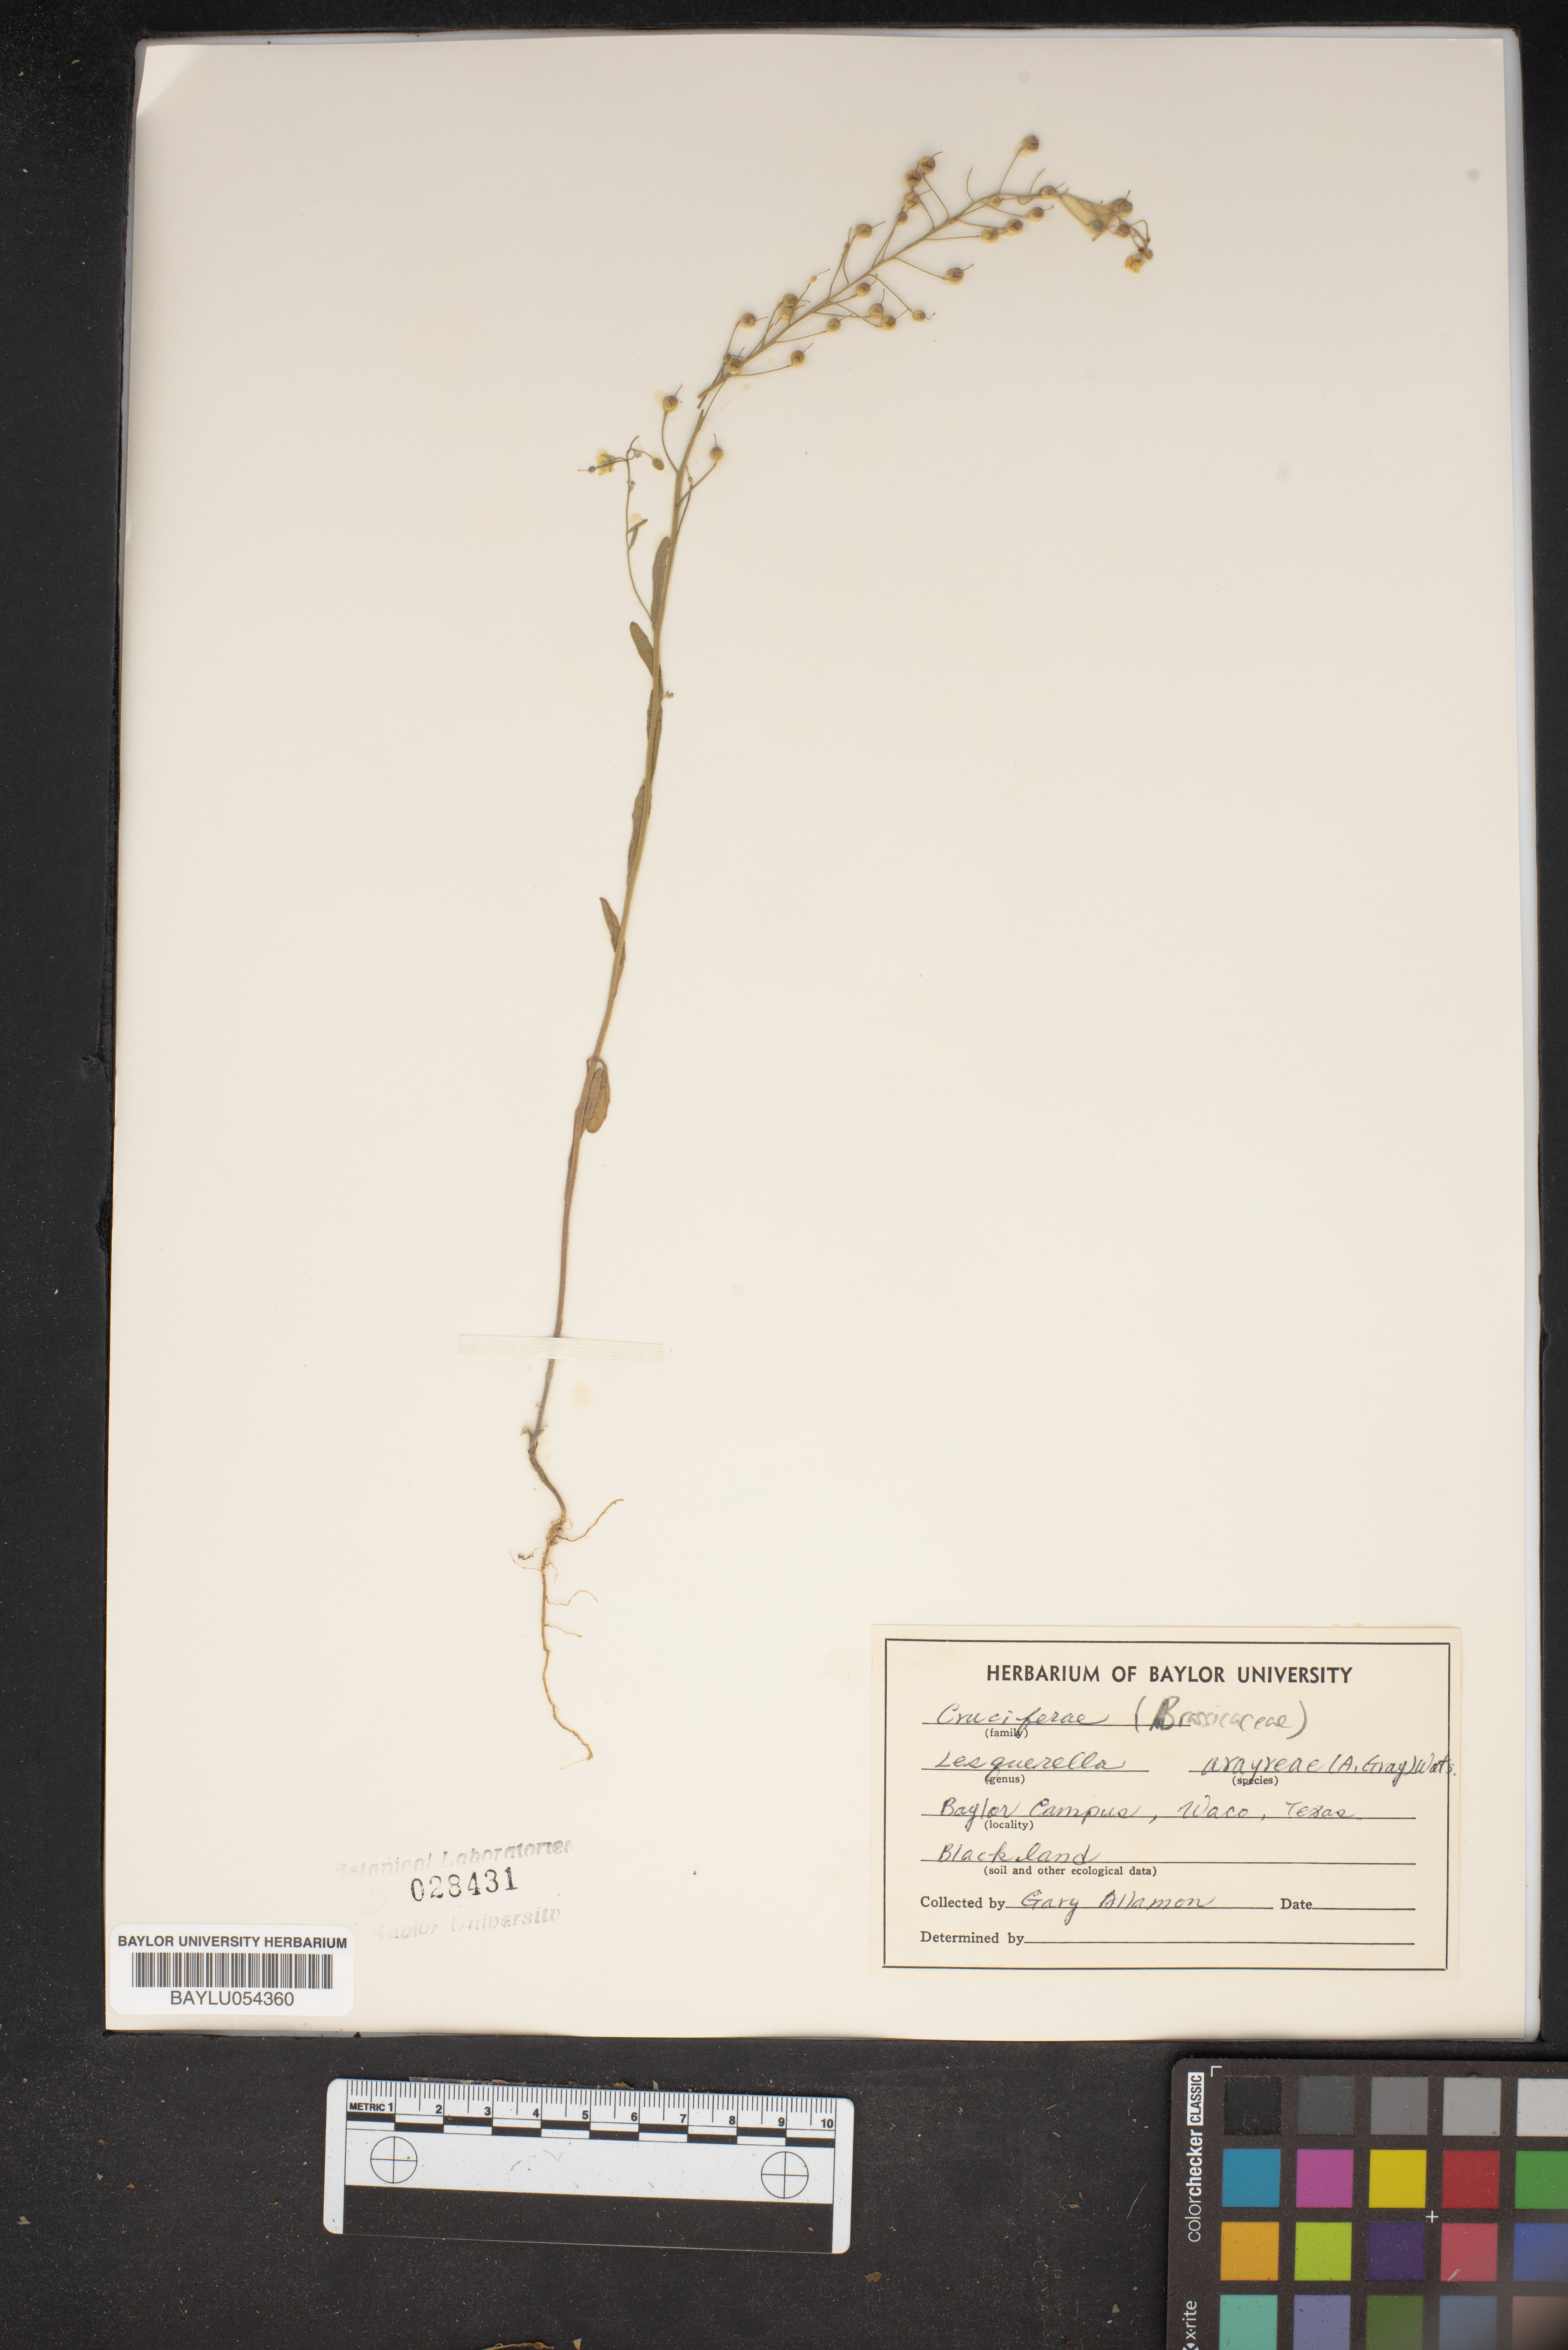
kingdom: Plantae
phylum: Tracheophyta
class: Magnoliopsida
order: Brassicales
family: Brassicaceae
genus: Physaria
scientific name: Physaria argyraea
